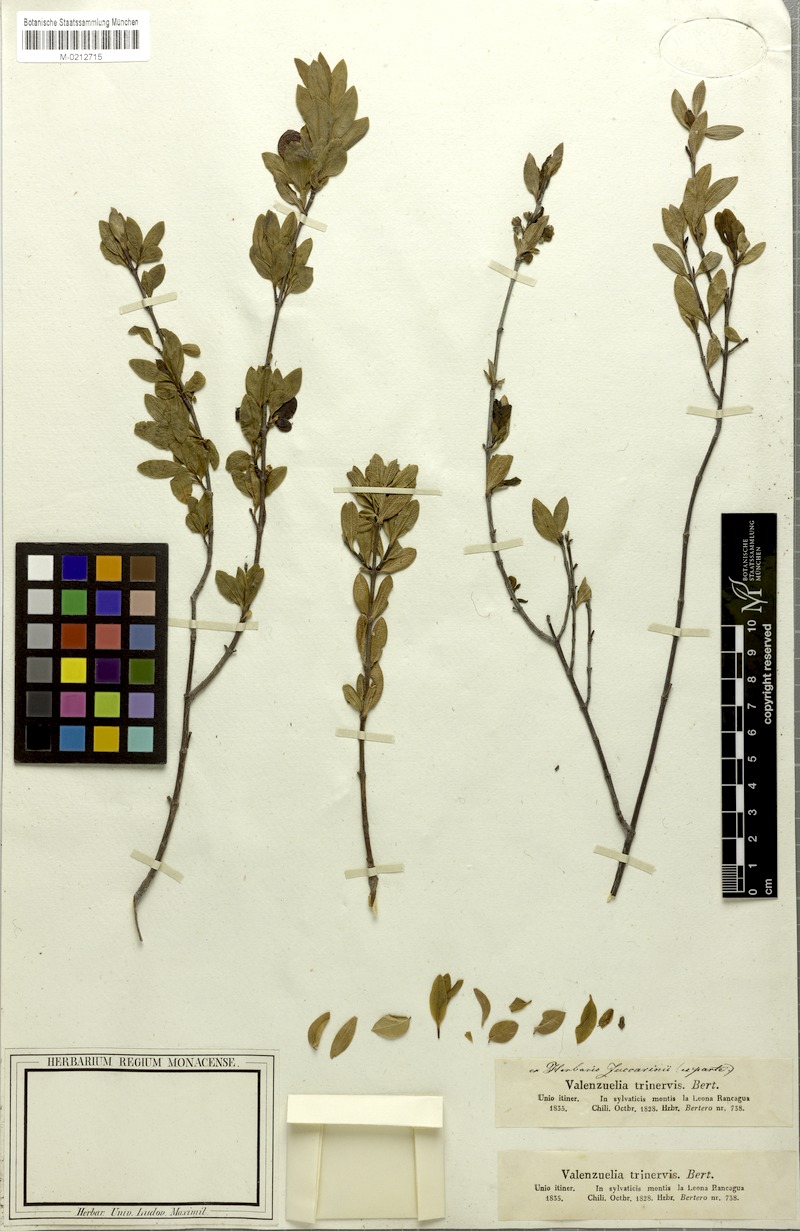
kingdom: Plantae
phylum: Tracheophyta
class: Magnoliopsida
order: Sapindales
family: Sapindaceae
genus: Guindilia
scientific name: Guindilia trinervis
